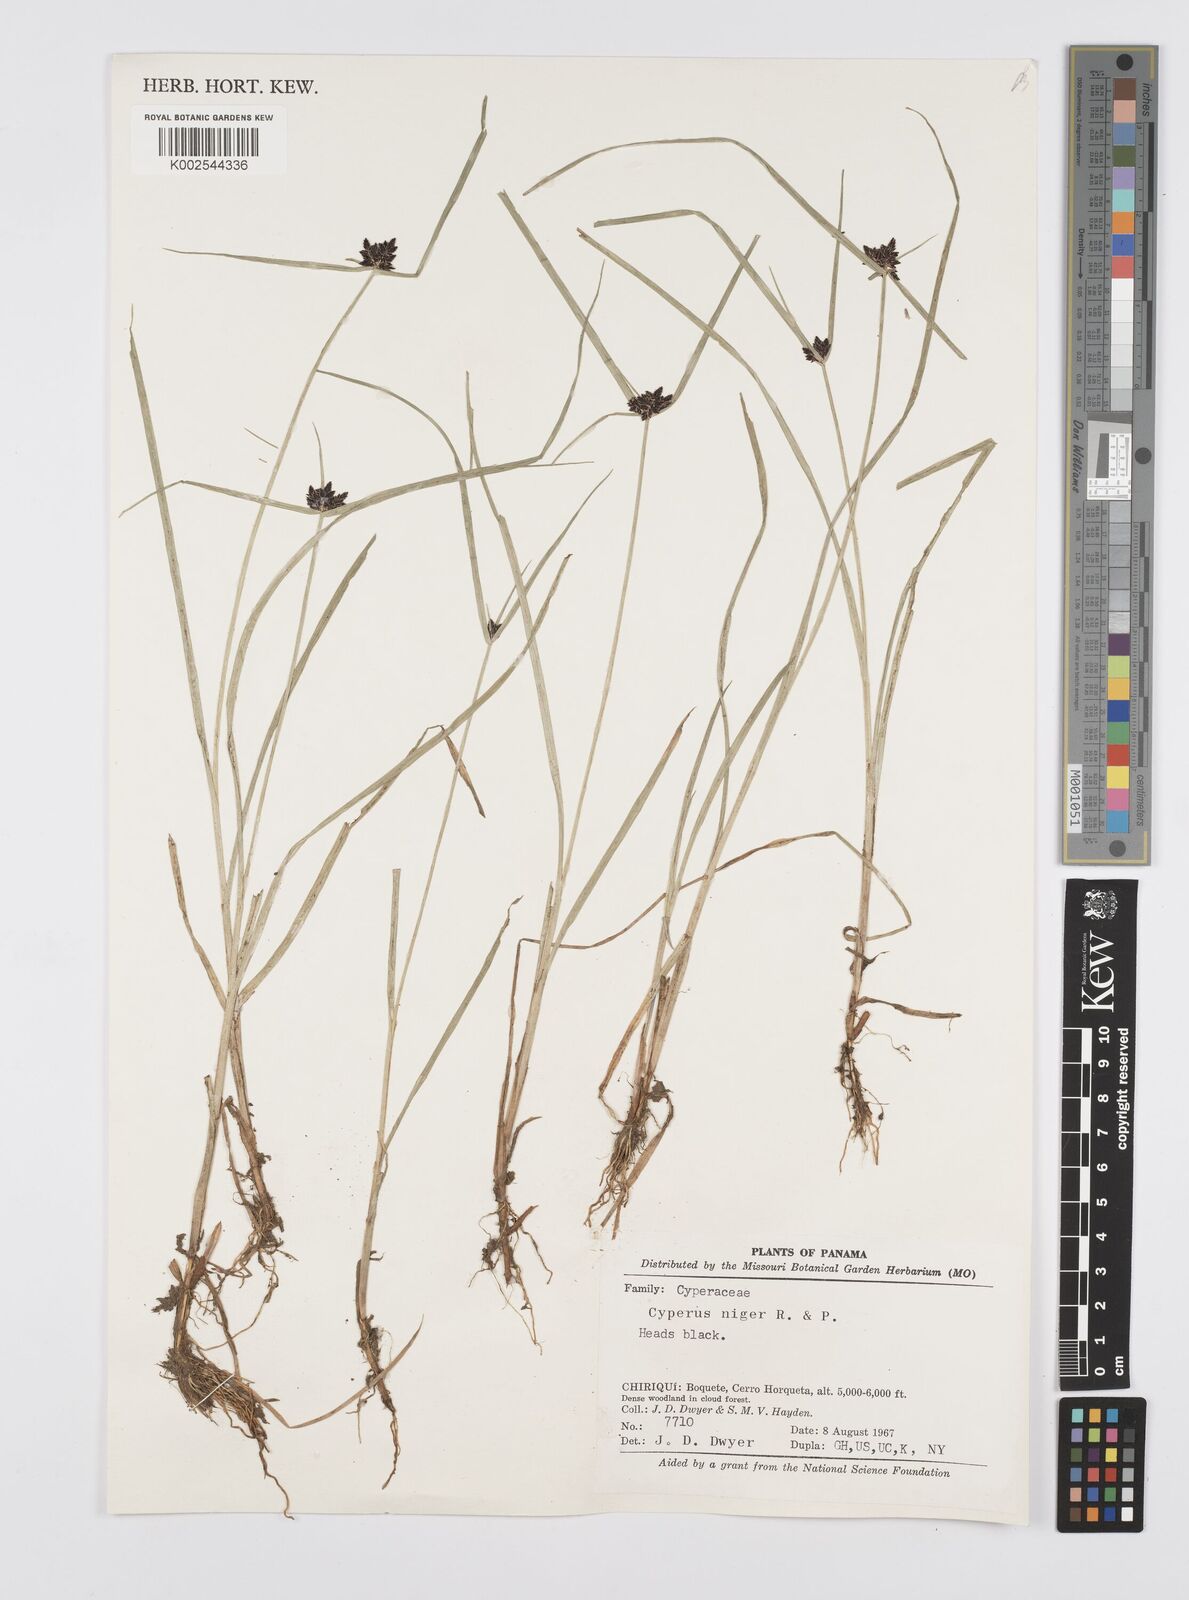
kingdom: Plantae
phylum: Tracheophyta
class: Liliopsida
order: Poales
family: Cyperaceae
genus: Cyperus
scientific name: Cyperus melanostachyus
